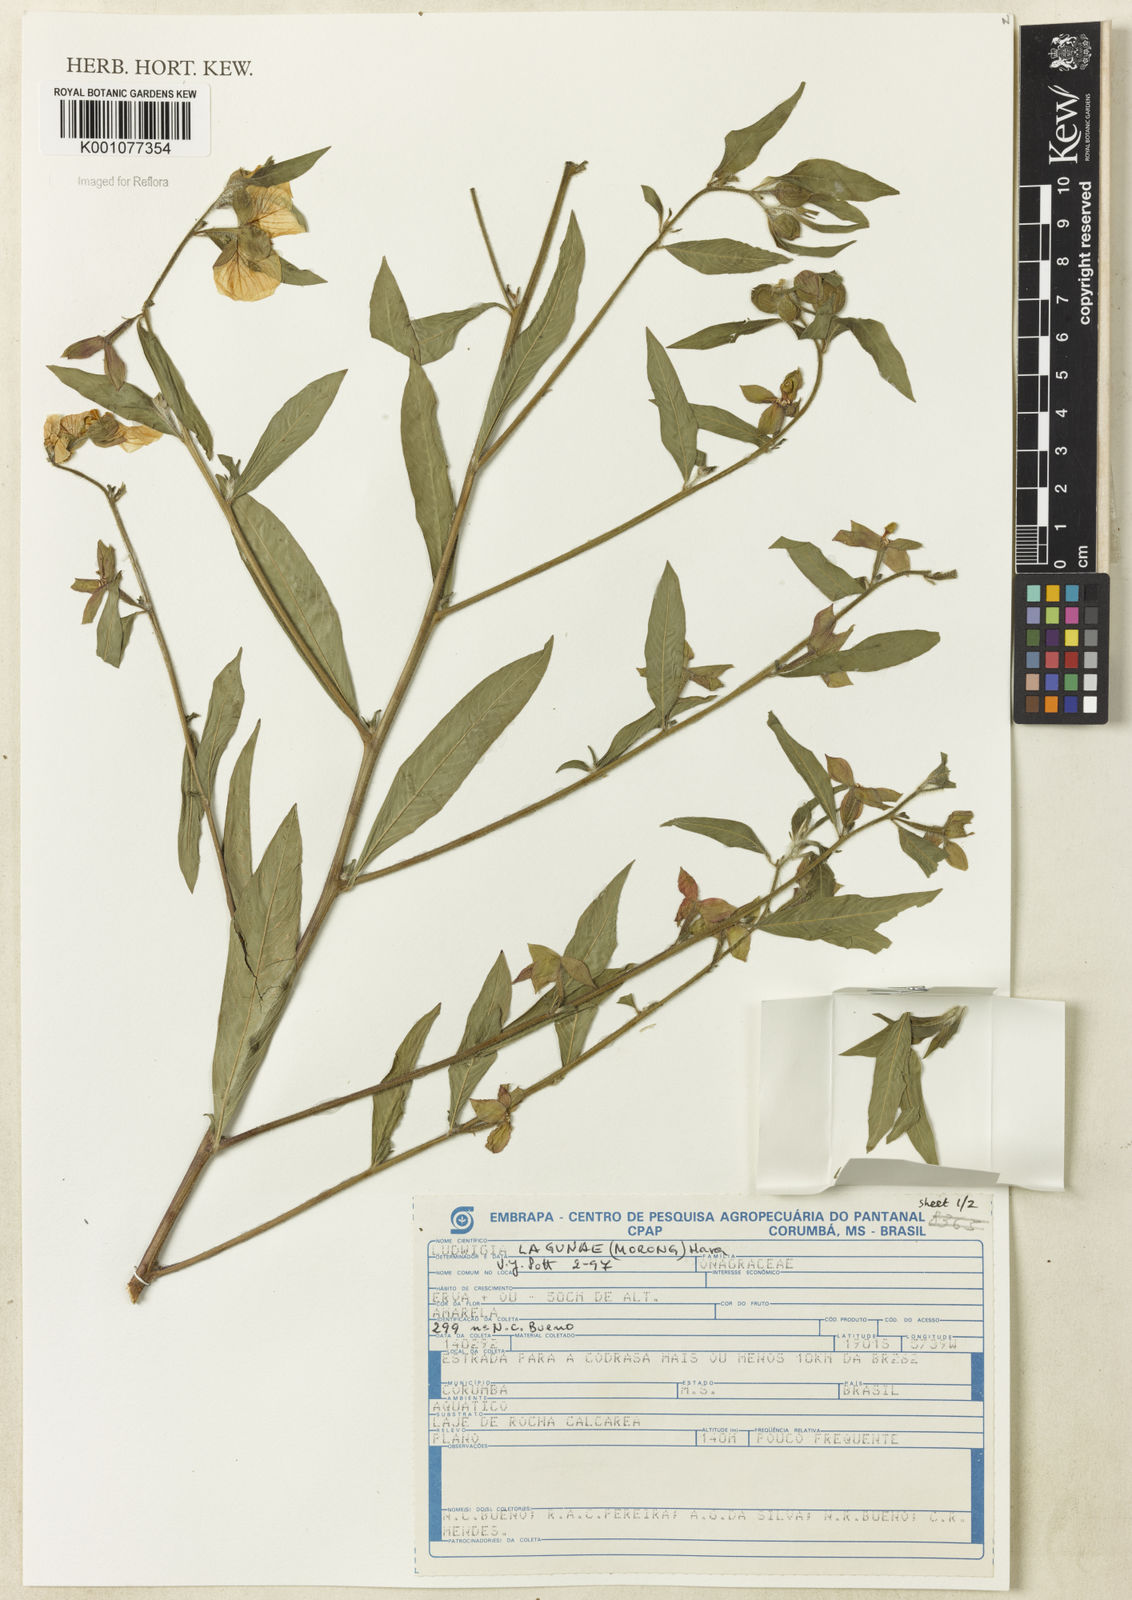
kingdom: Plantae
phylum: Tracheophyta
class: Magnoliopsida
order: Myrtales
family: Onagraceae
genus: Ludwigia
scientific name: Ludwigia lagunae
